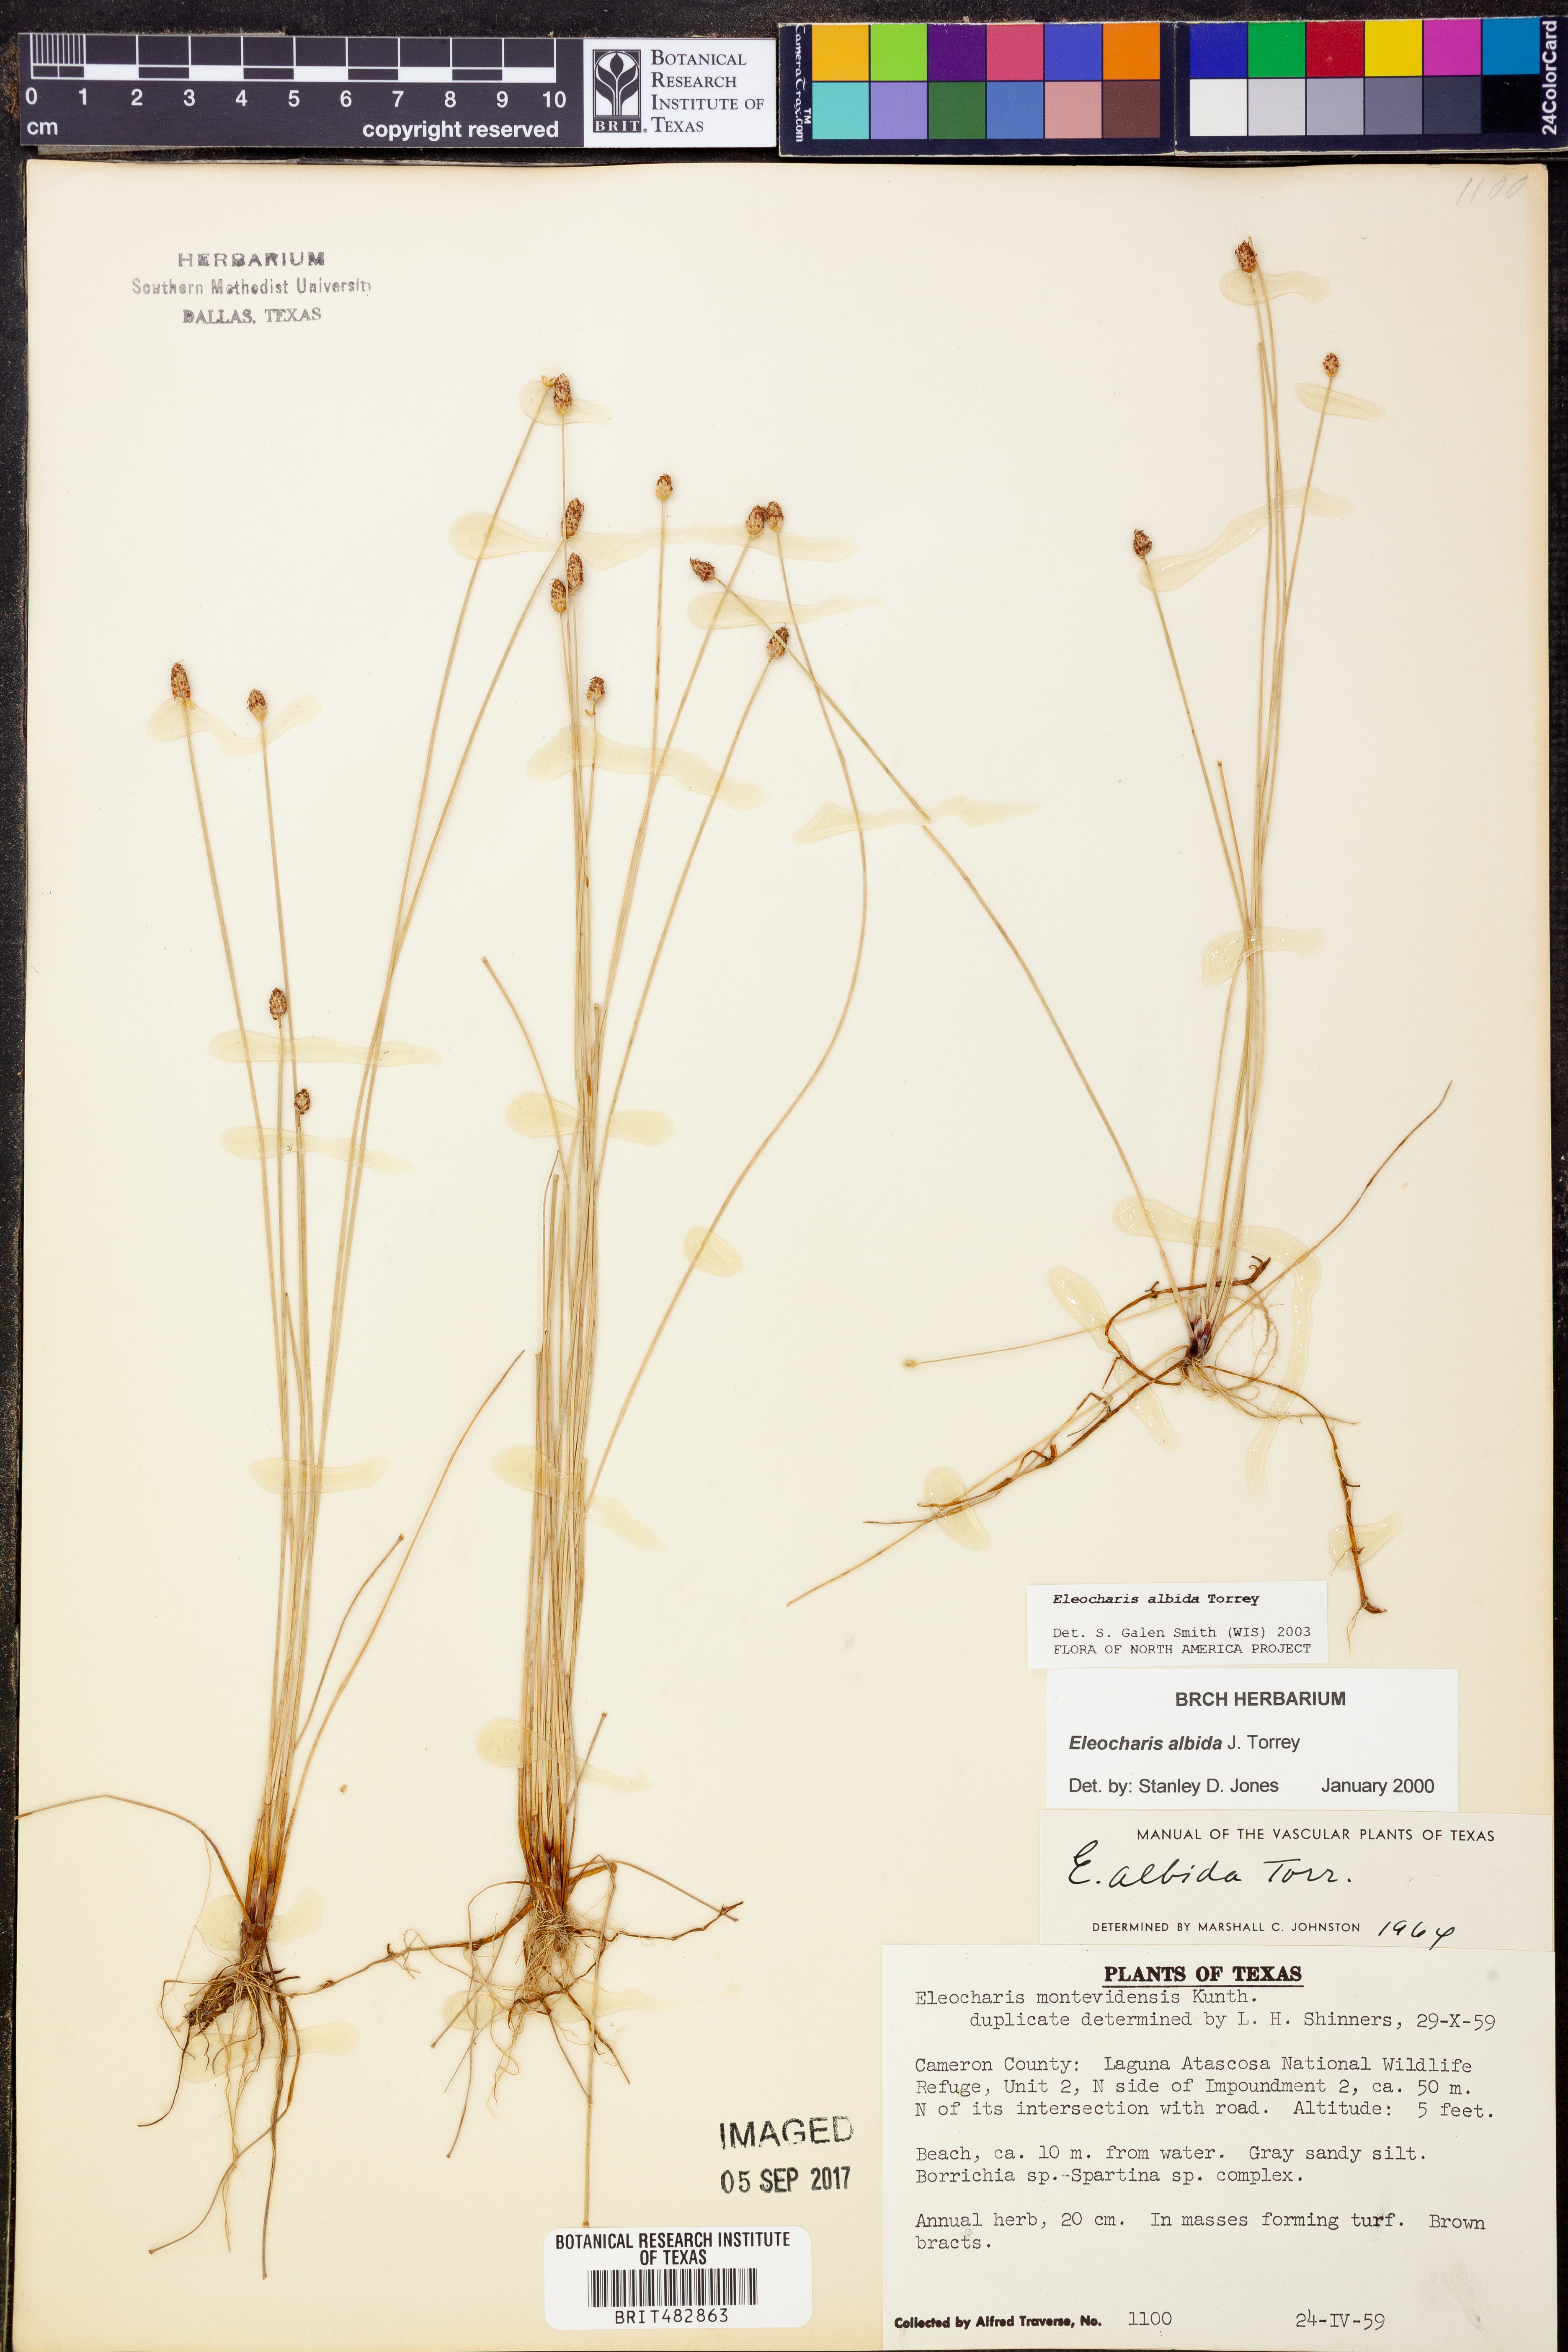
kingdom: Plantae
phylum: Tracheophyta
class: Liliopsida
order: Poales
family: Cyperaceae
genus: Eleocharis
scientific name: Eleocharis albida
